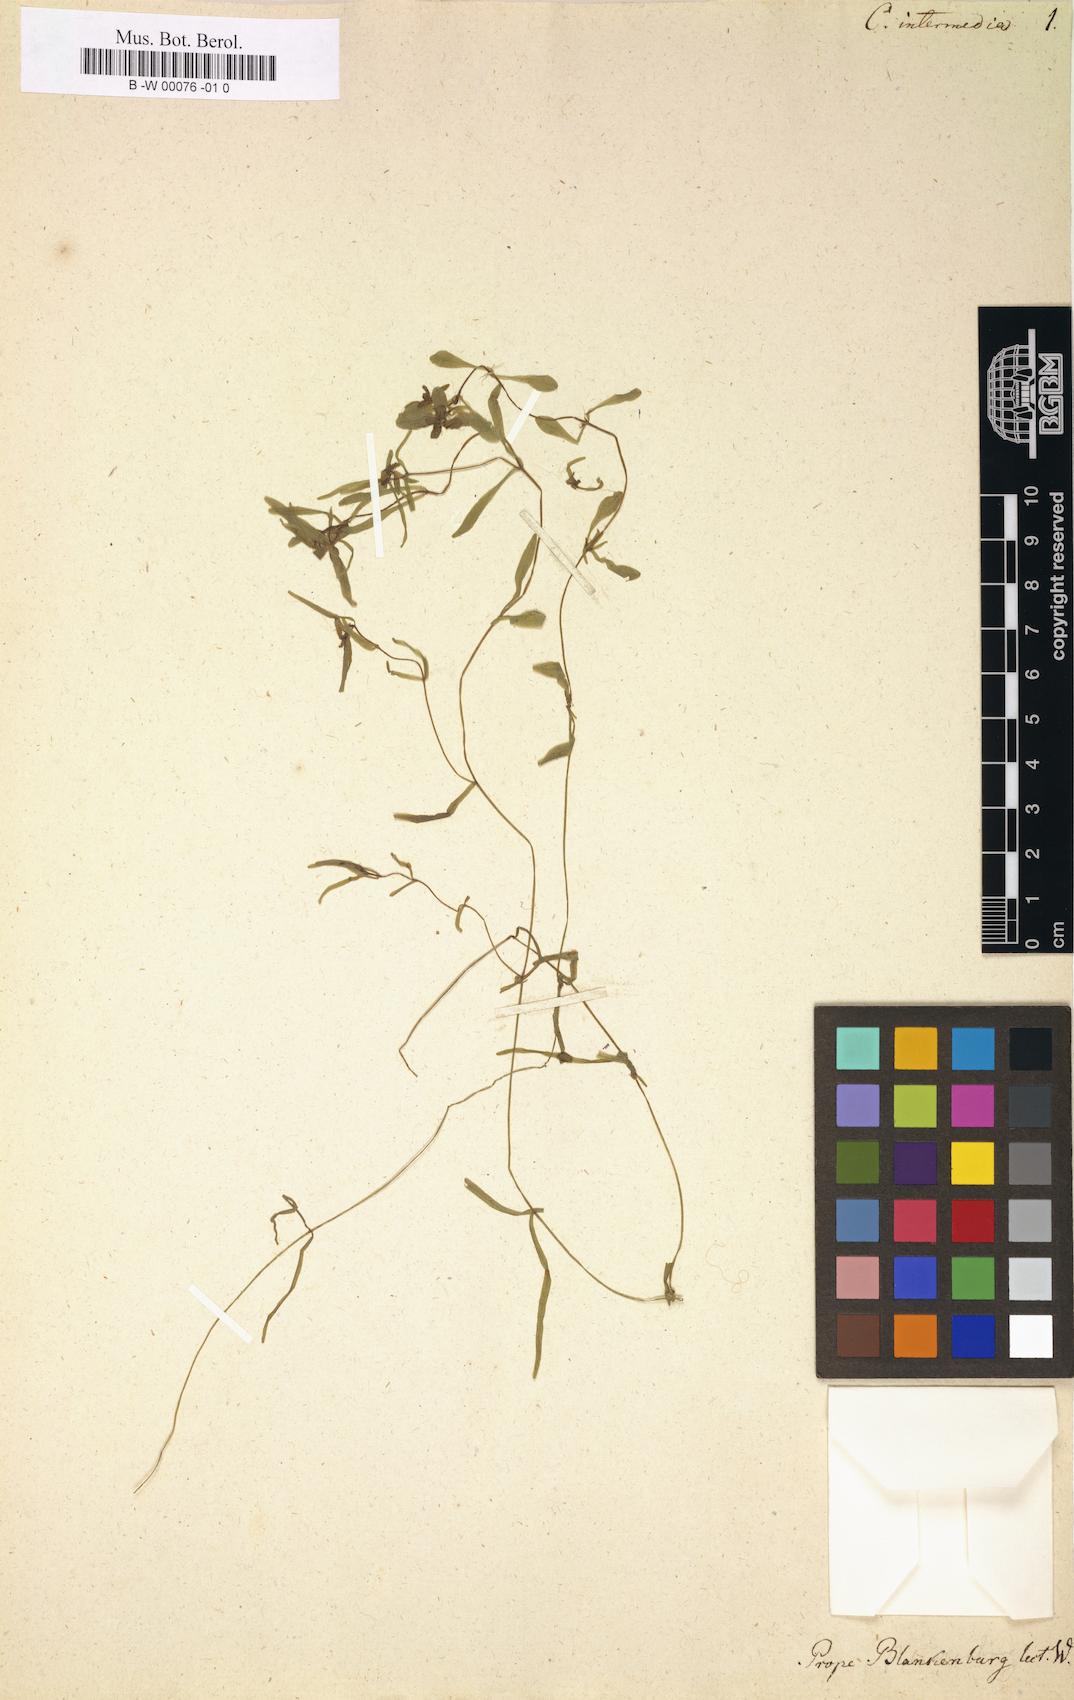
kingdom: Plantae
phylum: Tracheophyta
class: Magnoliopsida
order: Lamiales
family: Plantaginaceae
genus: Callitriche
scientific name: Callitriche hamulata
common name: Intermediate water-starwort
